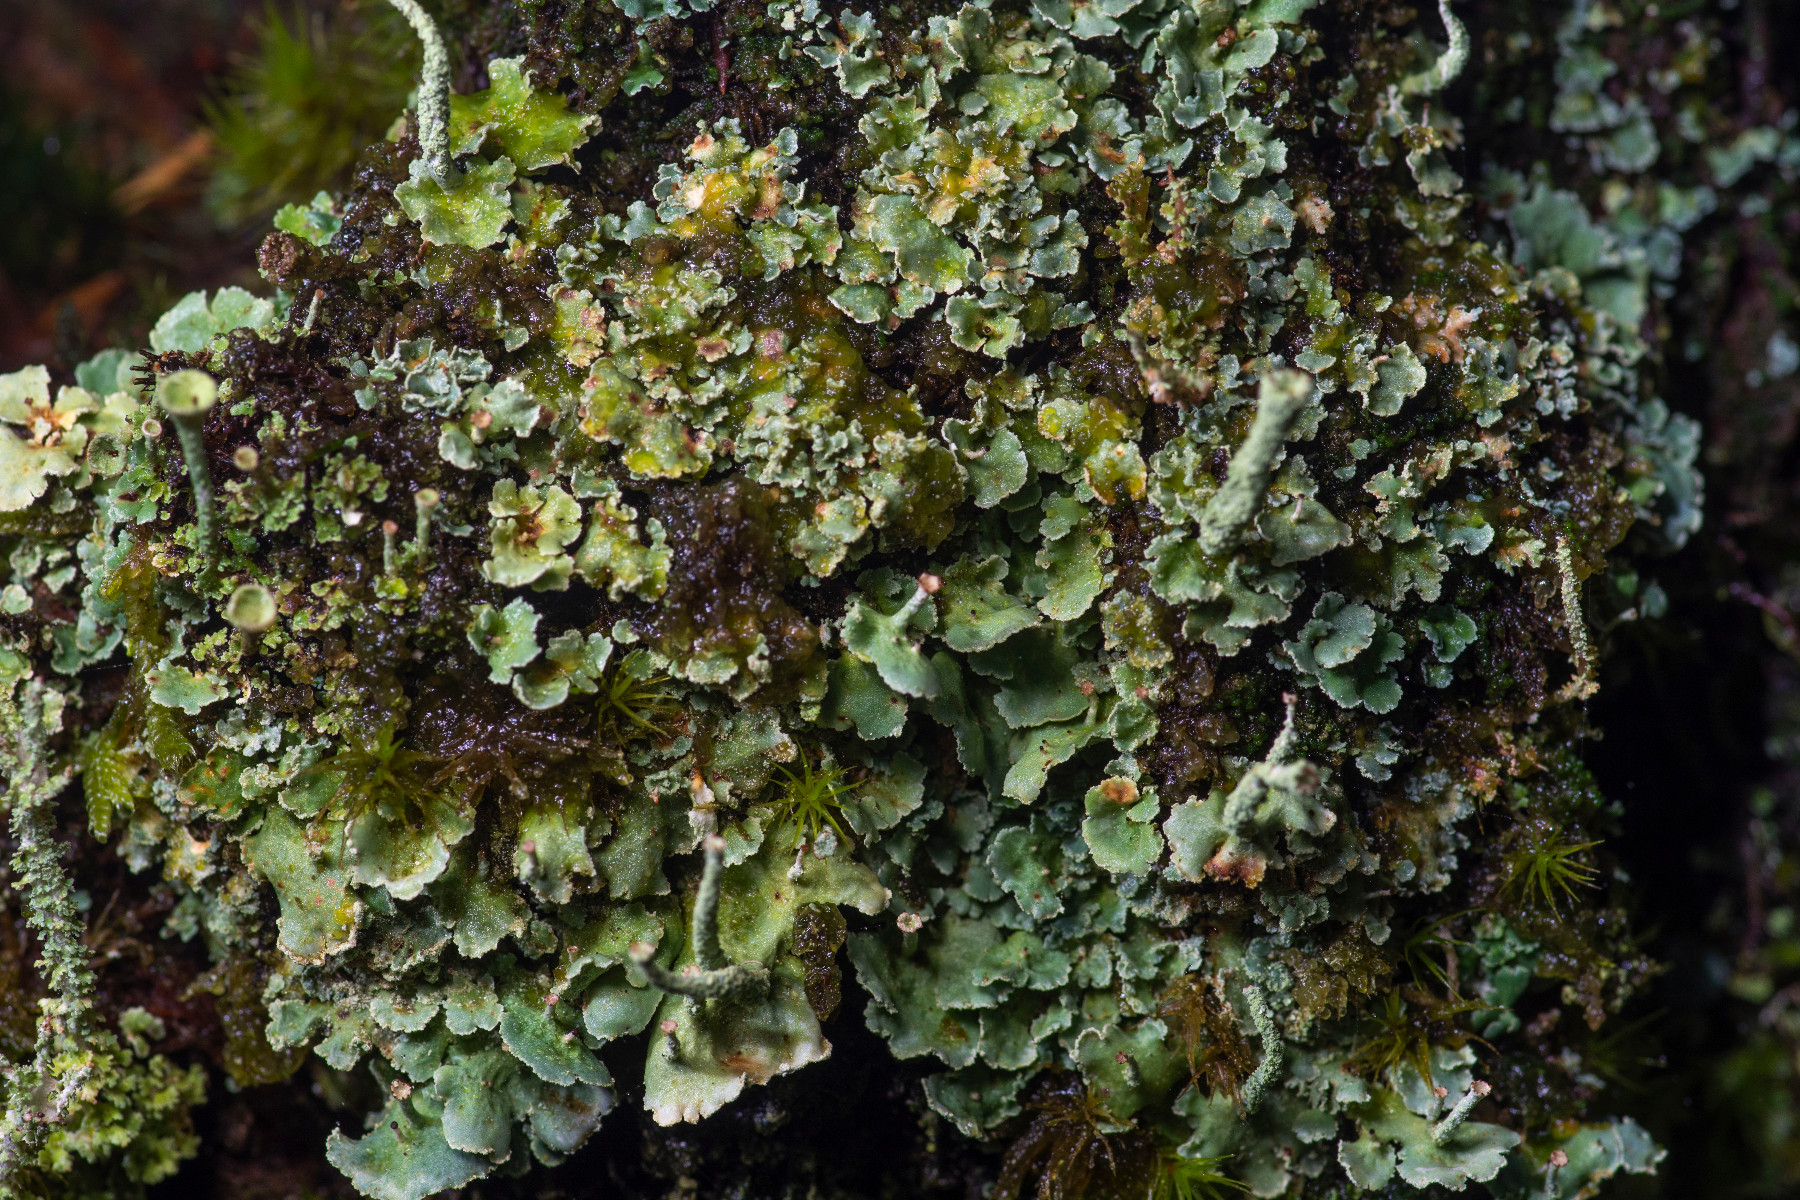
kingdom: Fungi
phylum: Ascomycota
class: Lecanoromycetes
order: Lecanorales
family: Cladoniaceae
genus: Cladonia
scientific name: Cladonia digitata
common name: finger-bægerlav
